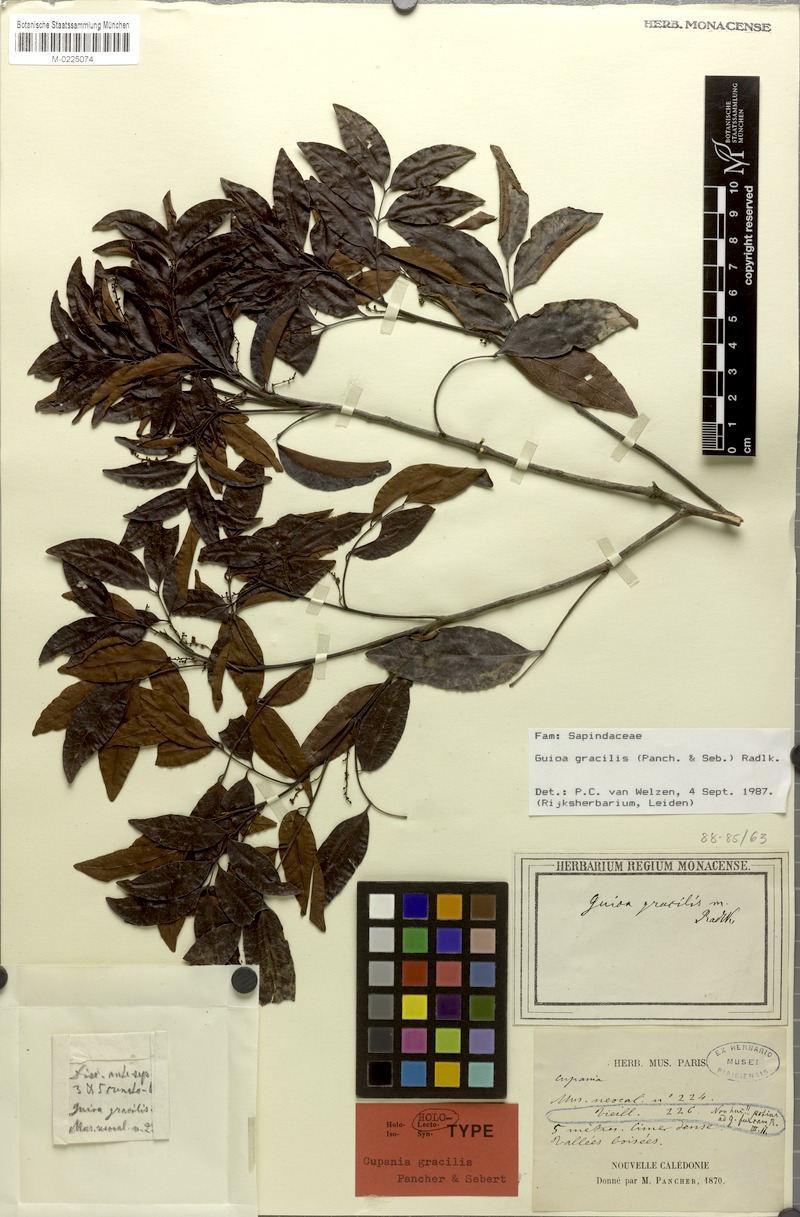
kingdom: Plantae
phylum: Tracheophyta
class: Magnoliopsida
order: Sapindales
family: Sapindaceae
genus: Guioa
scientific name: Guioa gracilis
